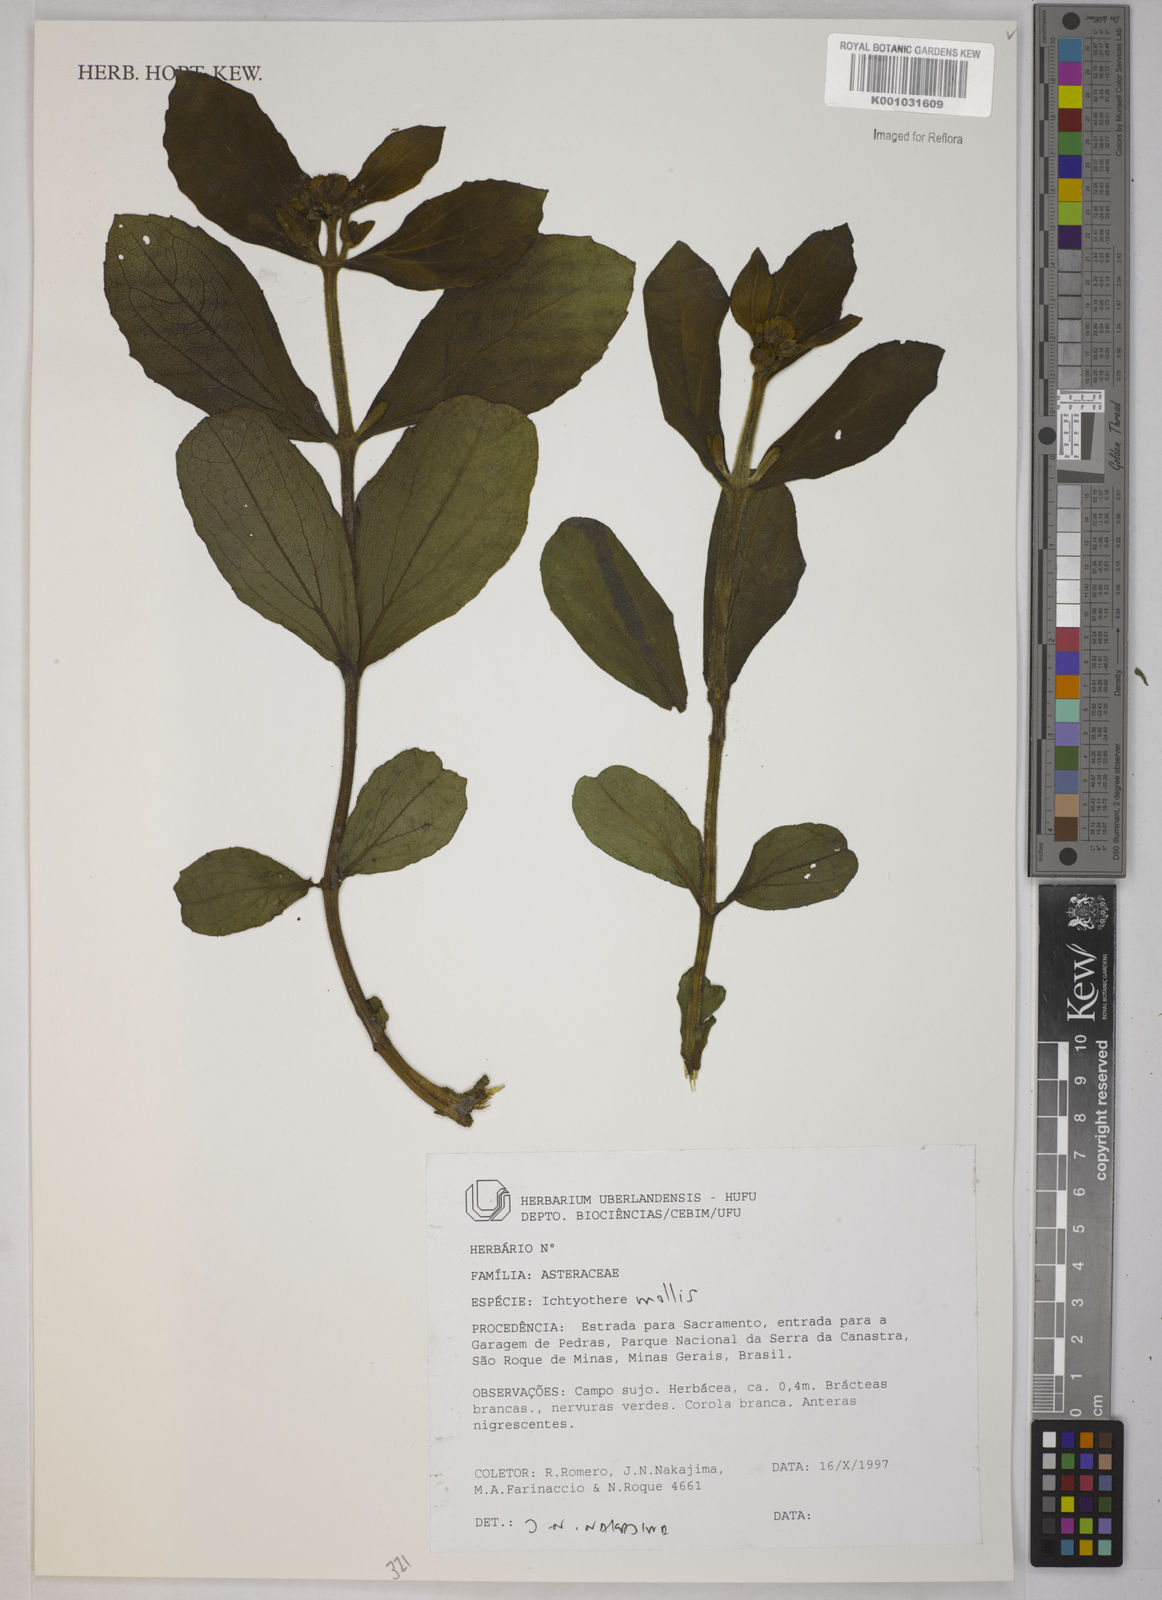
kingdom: Plantae
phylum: Tracheophyta
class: Magnoliopsida
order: Asterales
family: Asteraceae
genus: Ichthyothere
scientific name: Ichthyothere mollis
